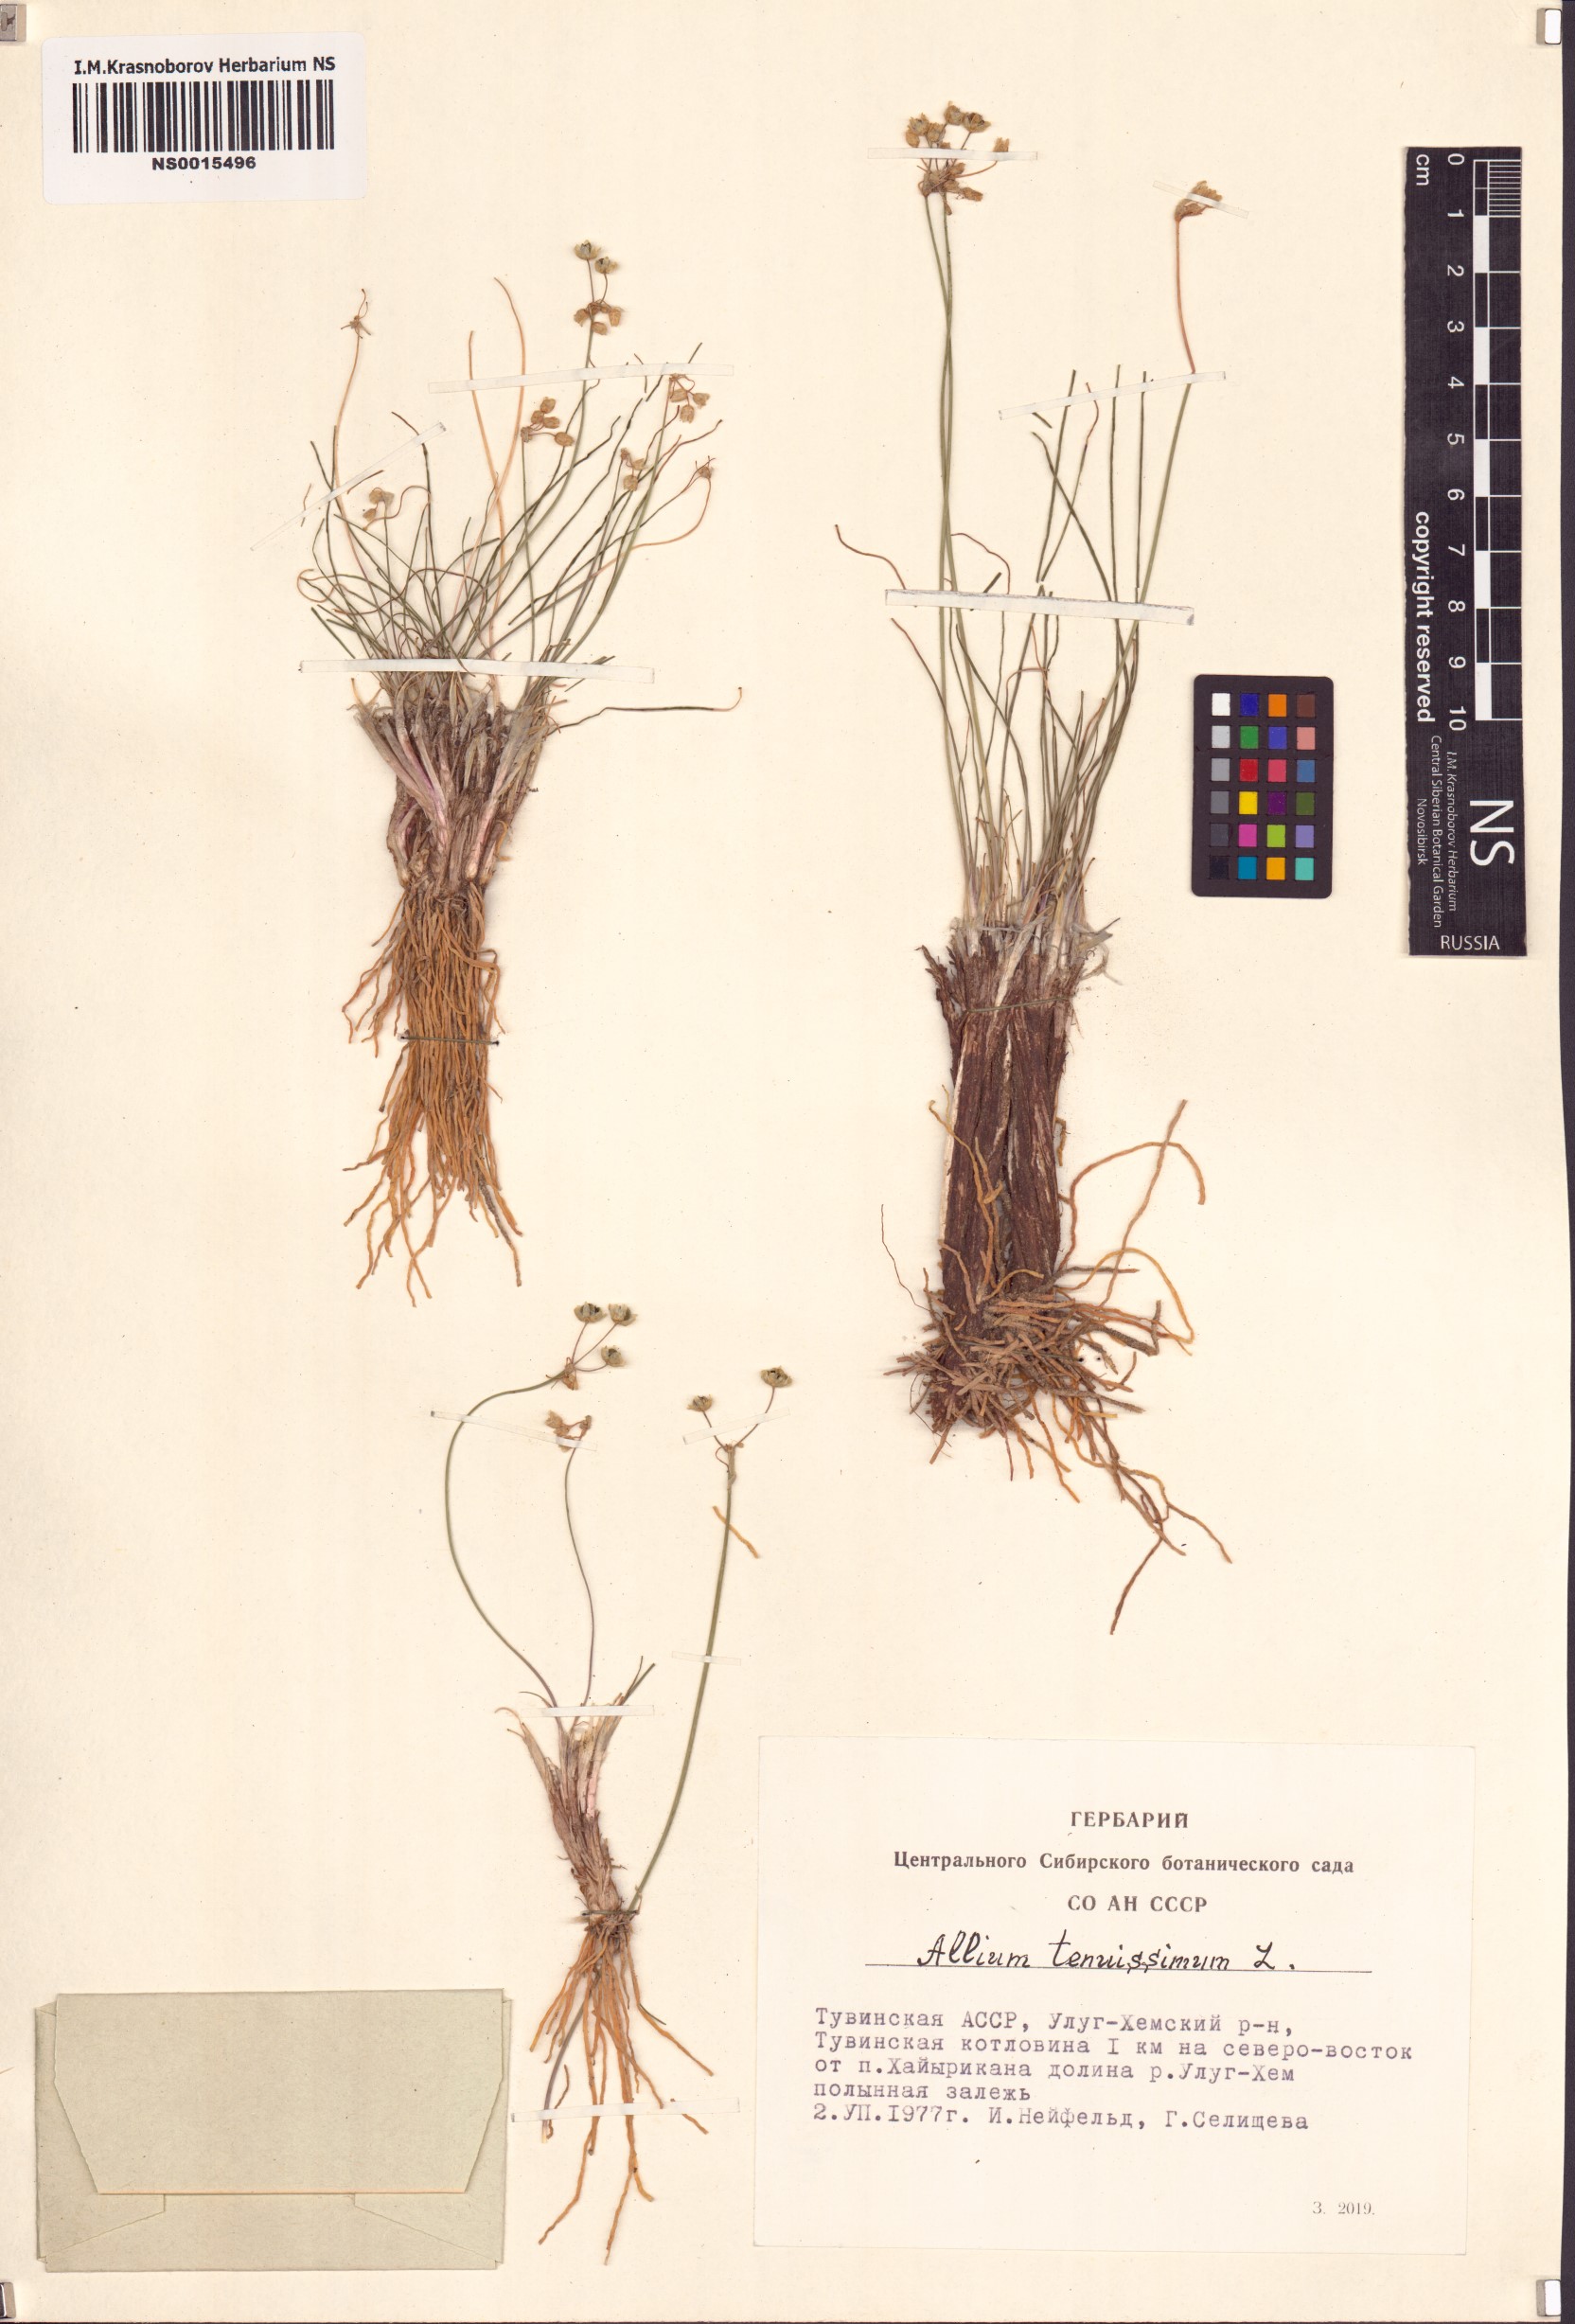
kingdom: Plantae
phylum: Tracheophyta
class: Liliopsida
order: Asparagales
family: Amaryllidaceae
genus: Allium
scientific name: Allium tenuissimum
